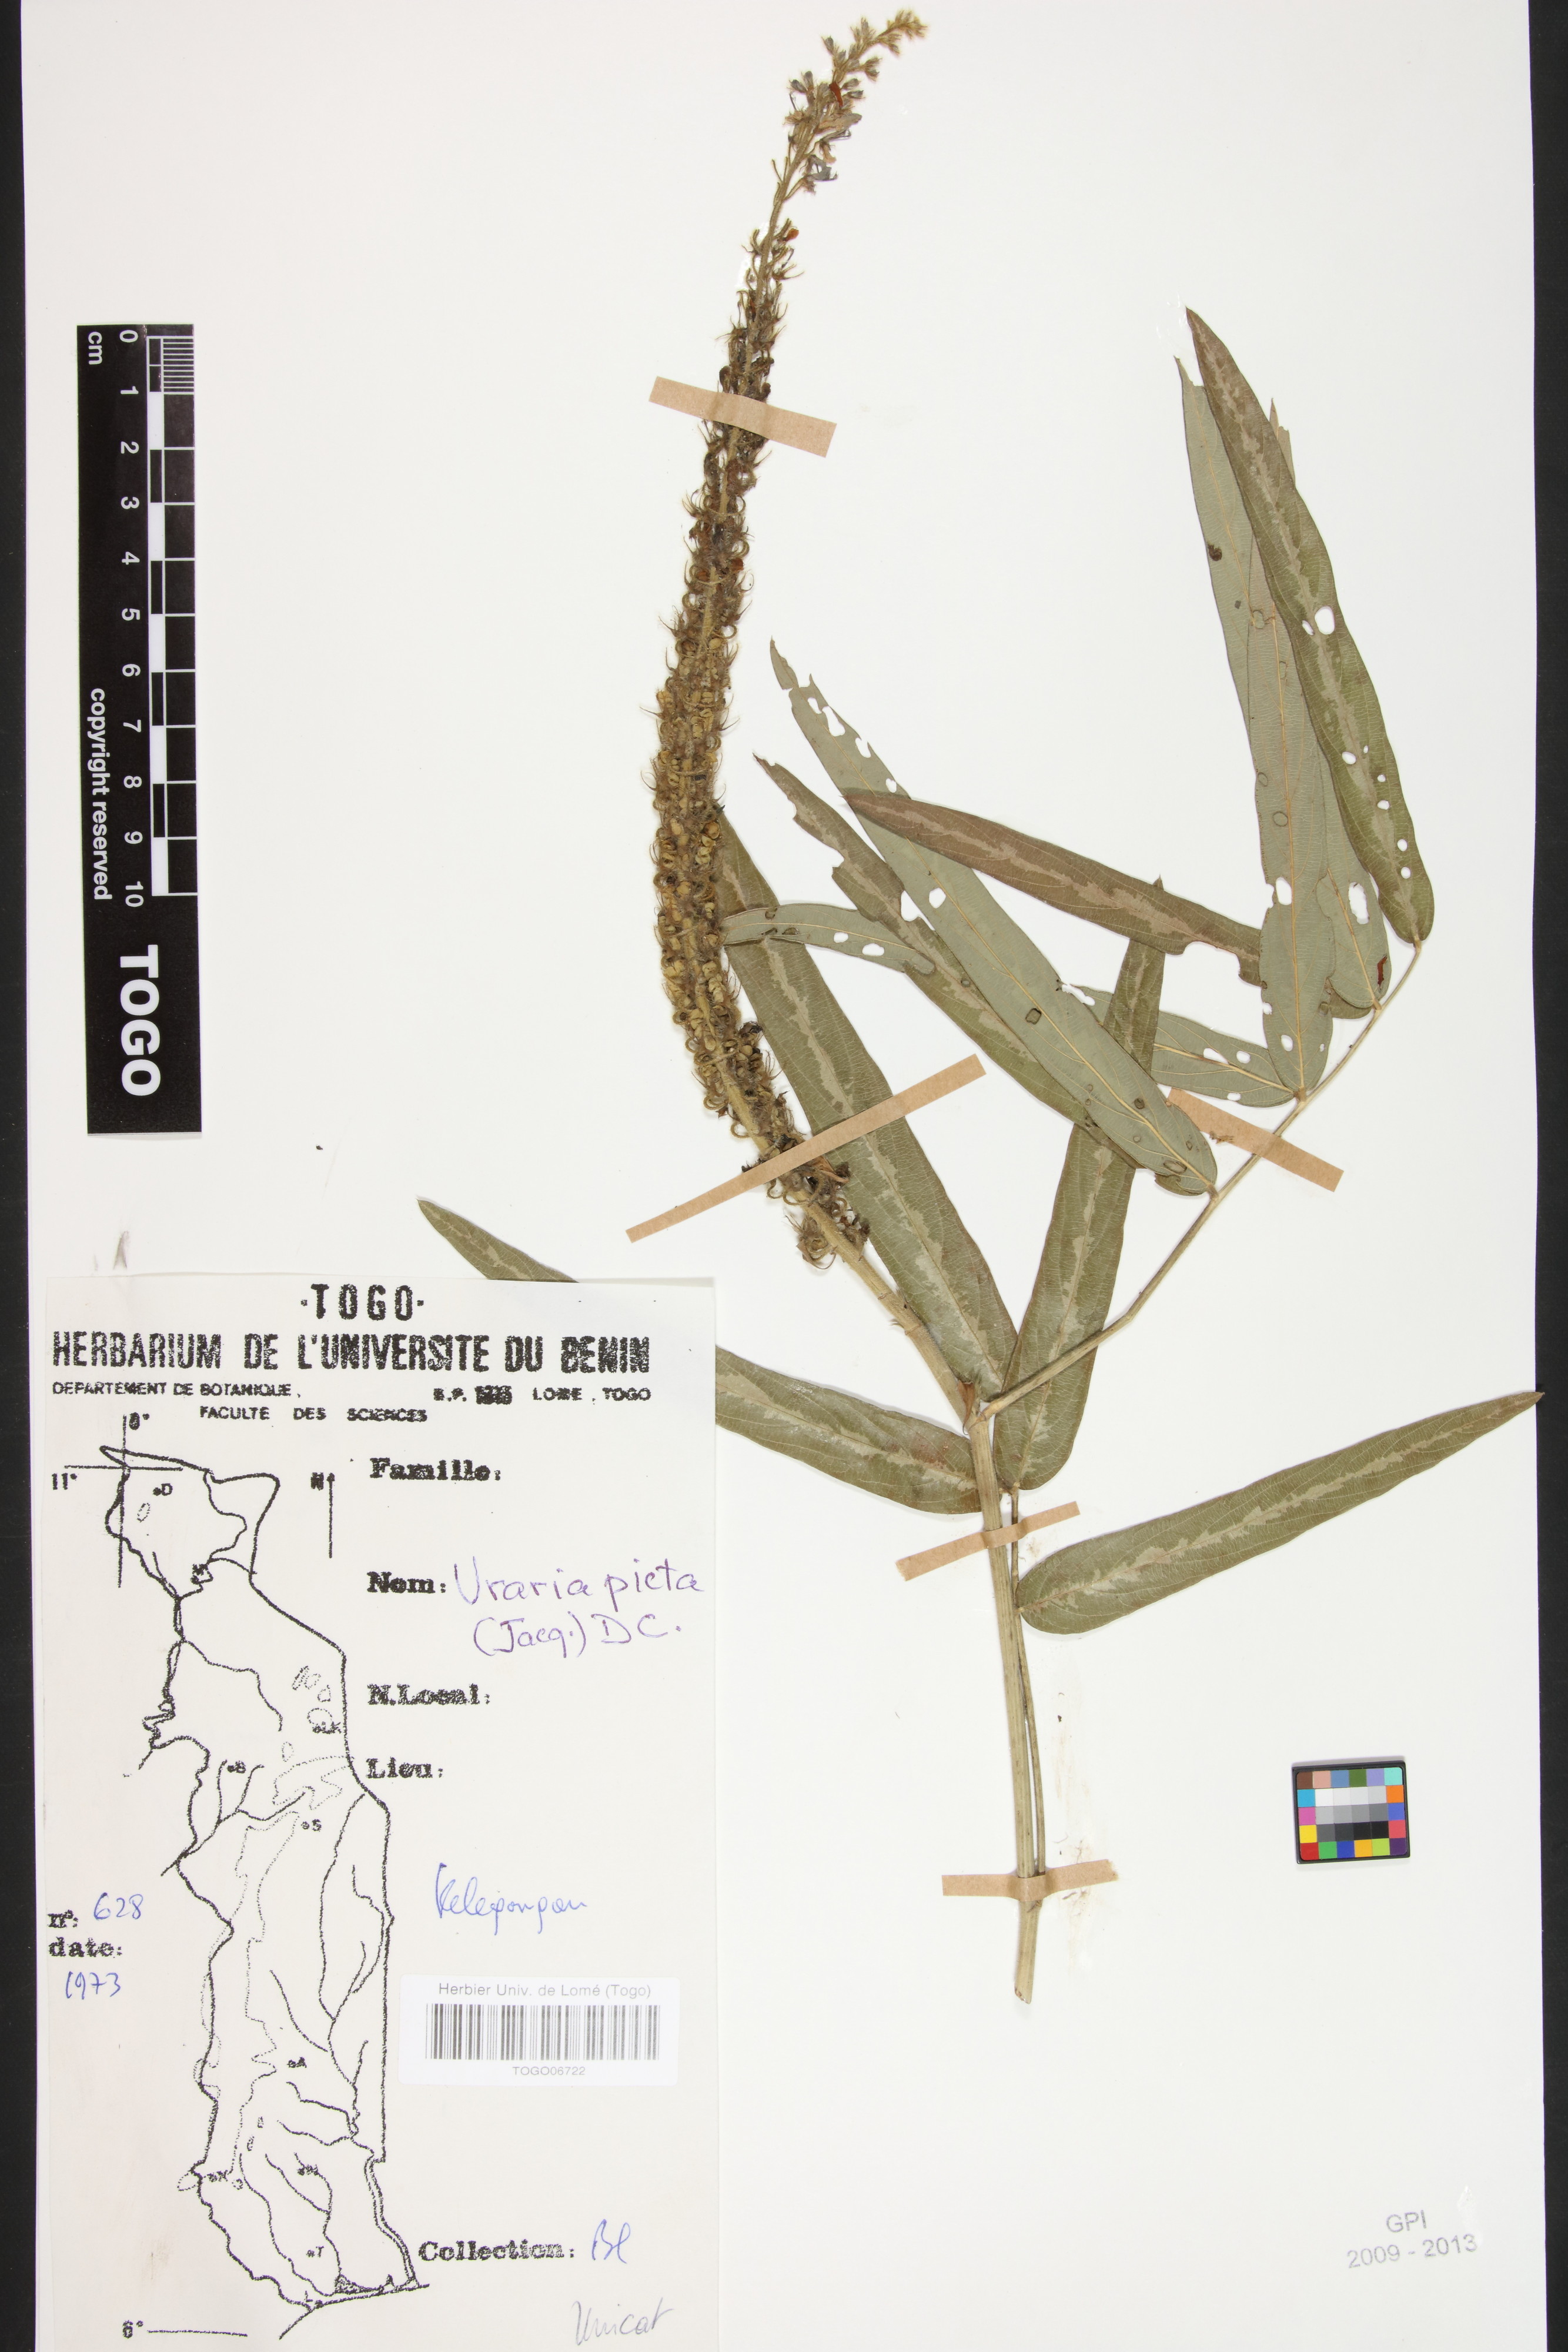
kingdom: Plantae
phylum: Tracheophyta
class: Magnoliopsida
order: Fabales
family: Fabaceae
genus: Uraria
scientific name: Uraria picta
